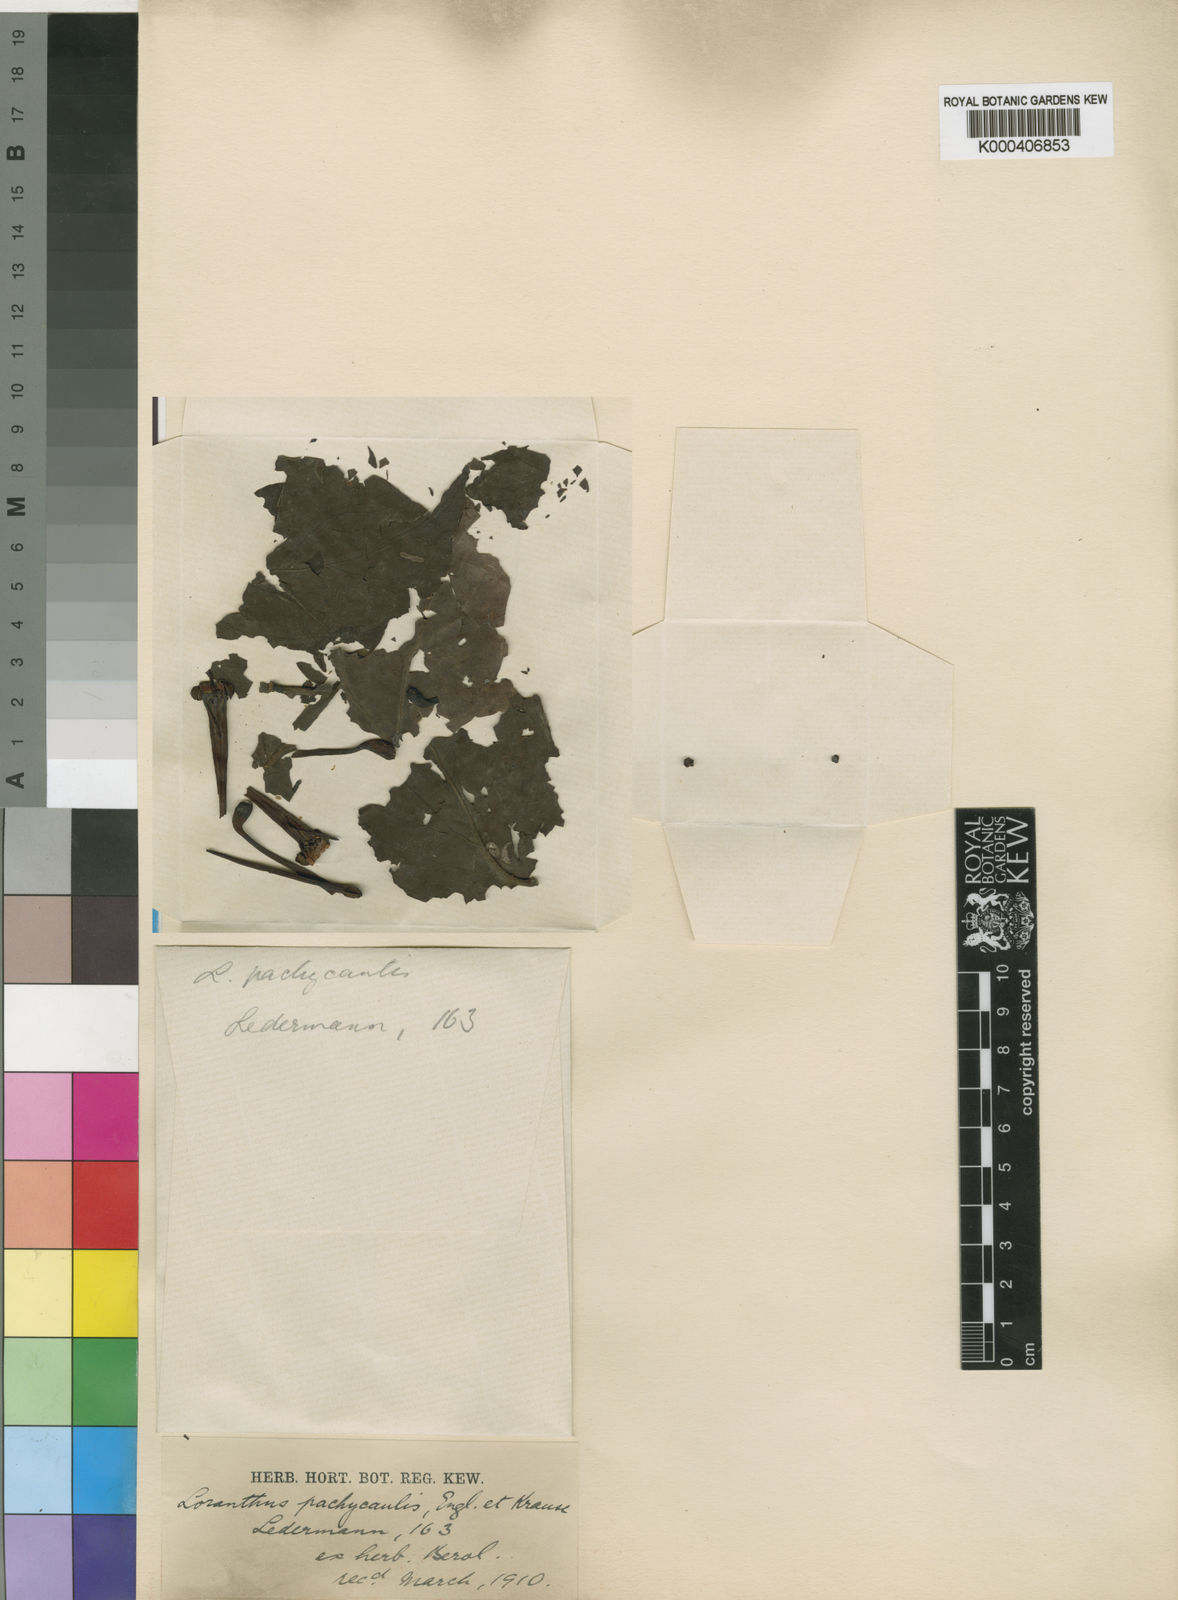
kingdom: Plantae
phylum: Tracheophyta
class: Magnoliopsida
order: Santalales
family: Loranthaceae
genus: Tapinanthus
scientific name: Tapinanthus preussii
